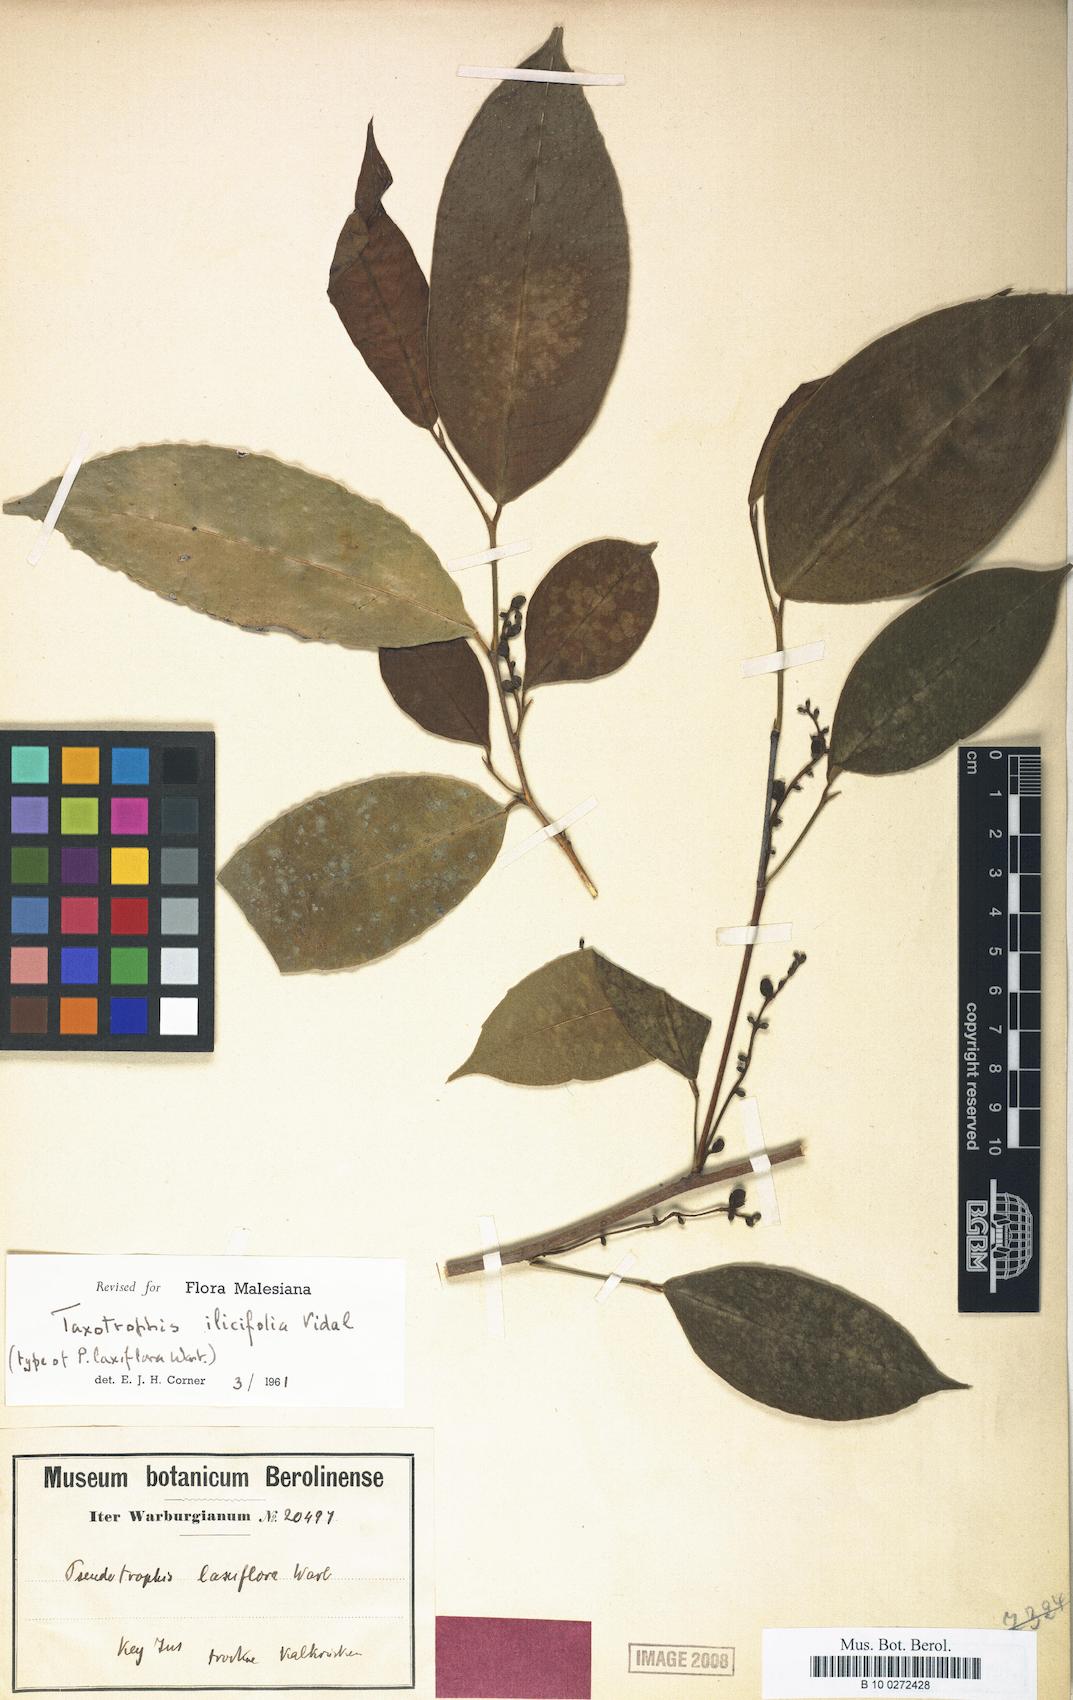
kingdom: Plantae
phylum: Tracheophyta
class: Magnoliopsida
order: Rosales
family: Moraceae
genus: Taxotrophis
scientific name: Taxotrophis ilicifolia
